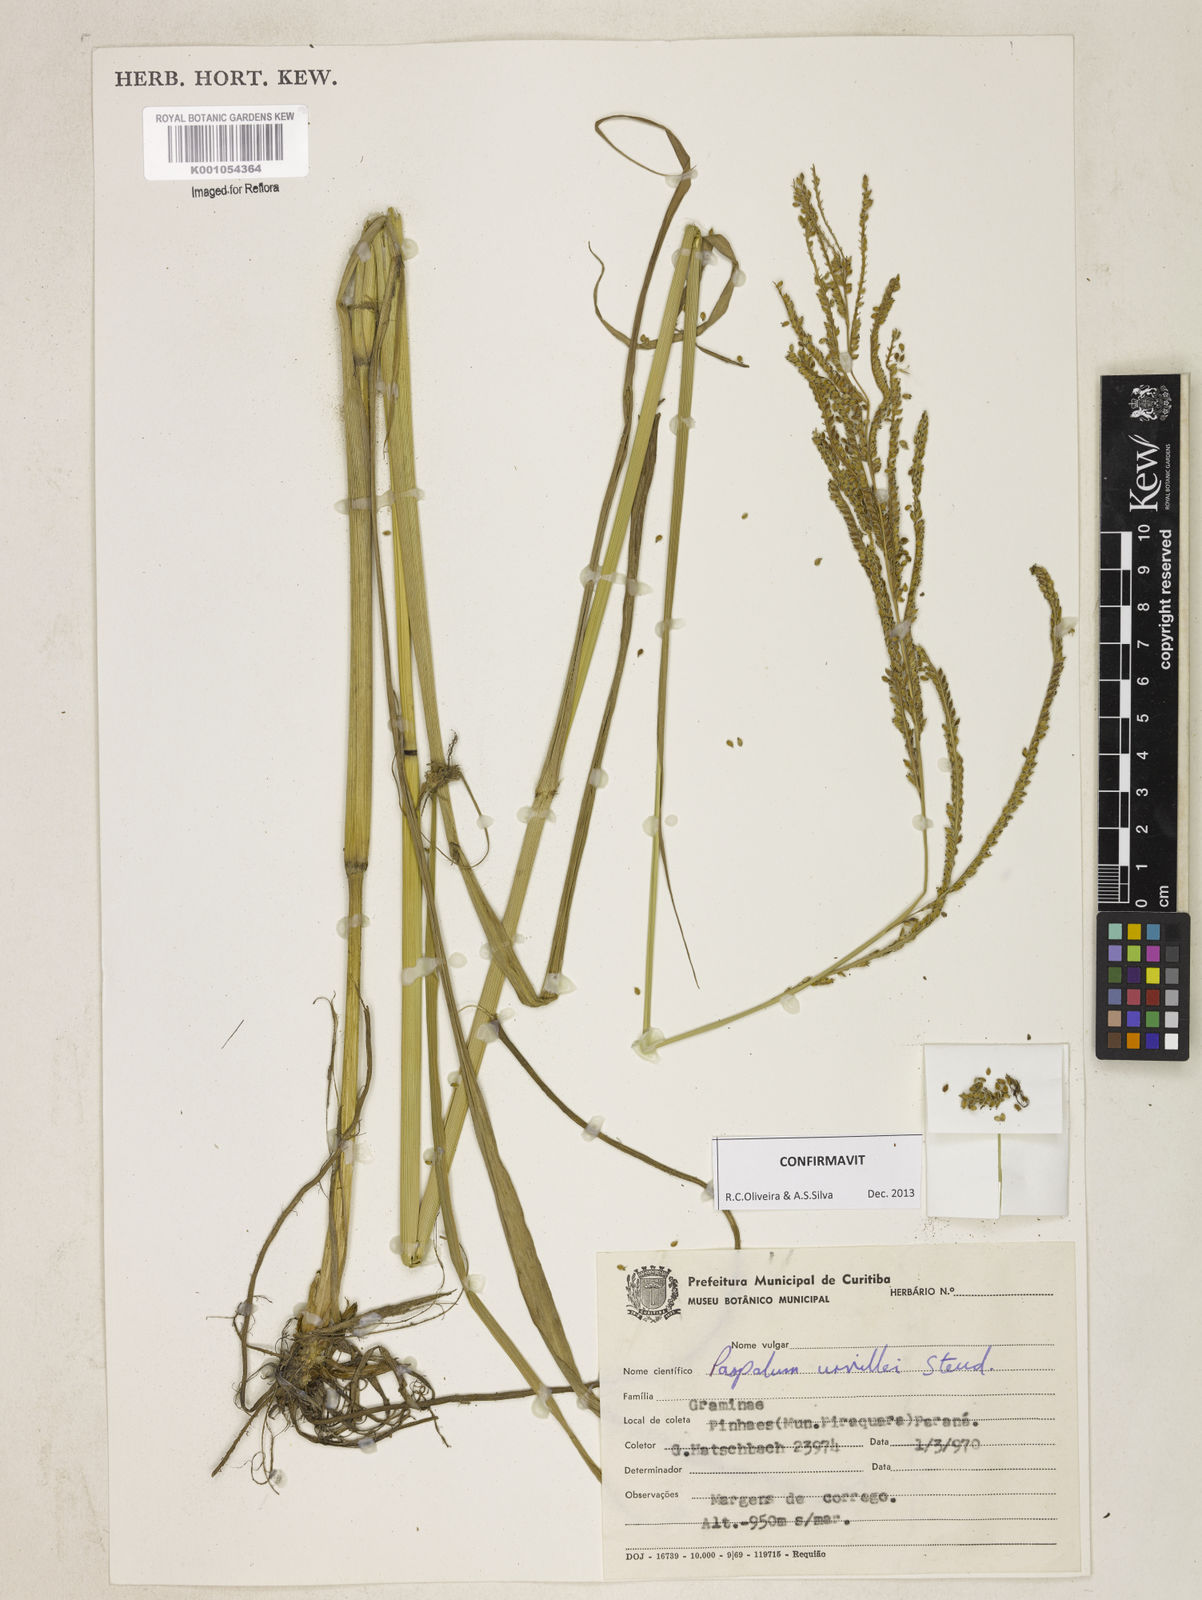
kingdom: Plantae
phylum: Tracheophyta
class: Liliopsida
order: Poales
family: Poaceae
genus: Paspalum
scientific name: Paspalum urvillei
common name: Vasey's grass
